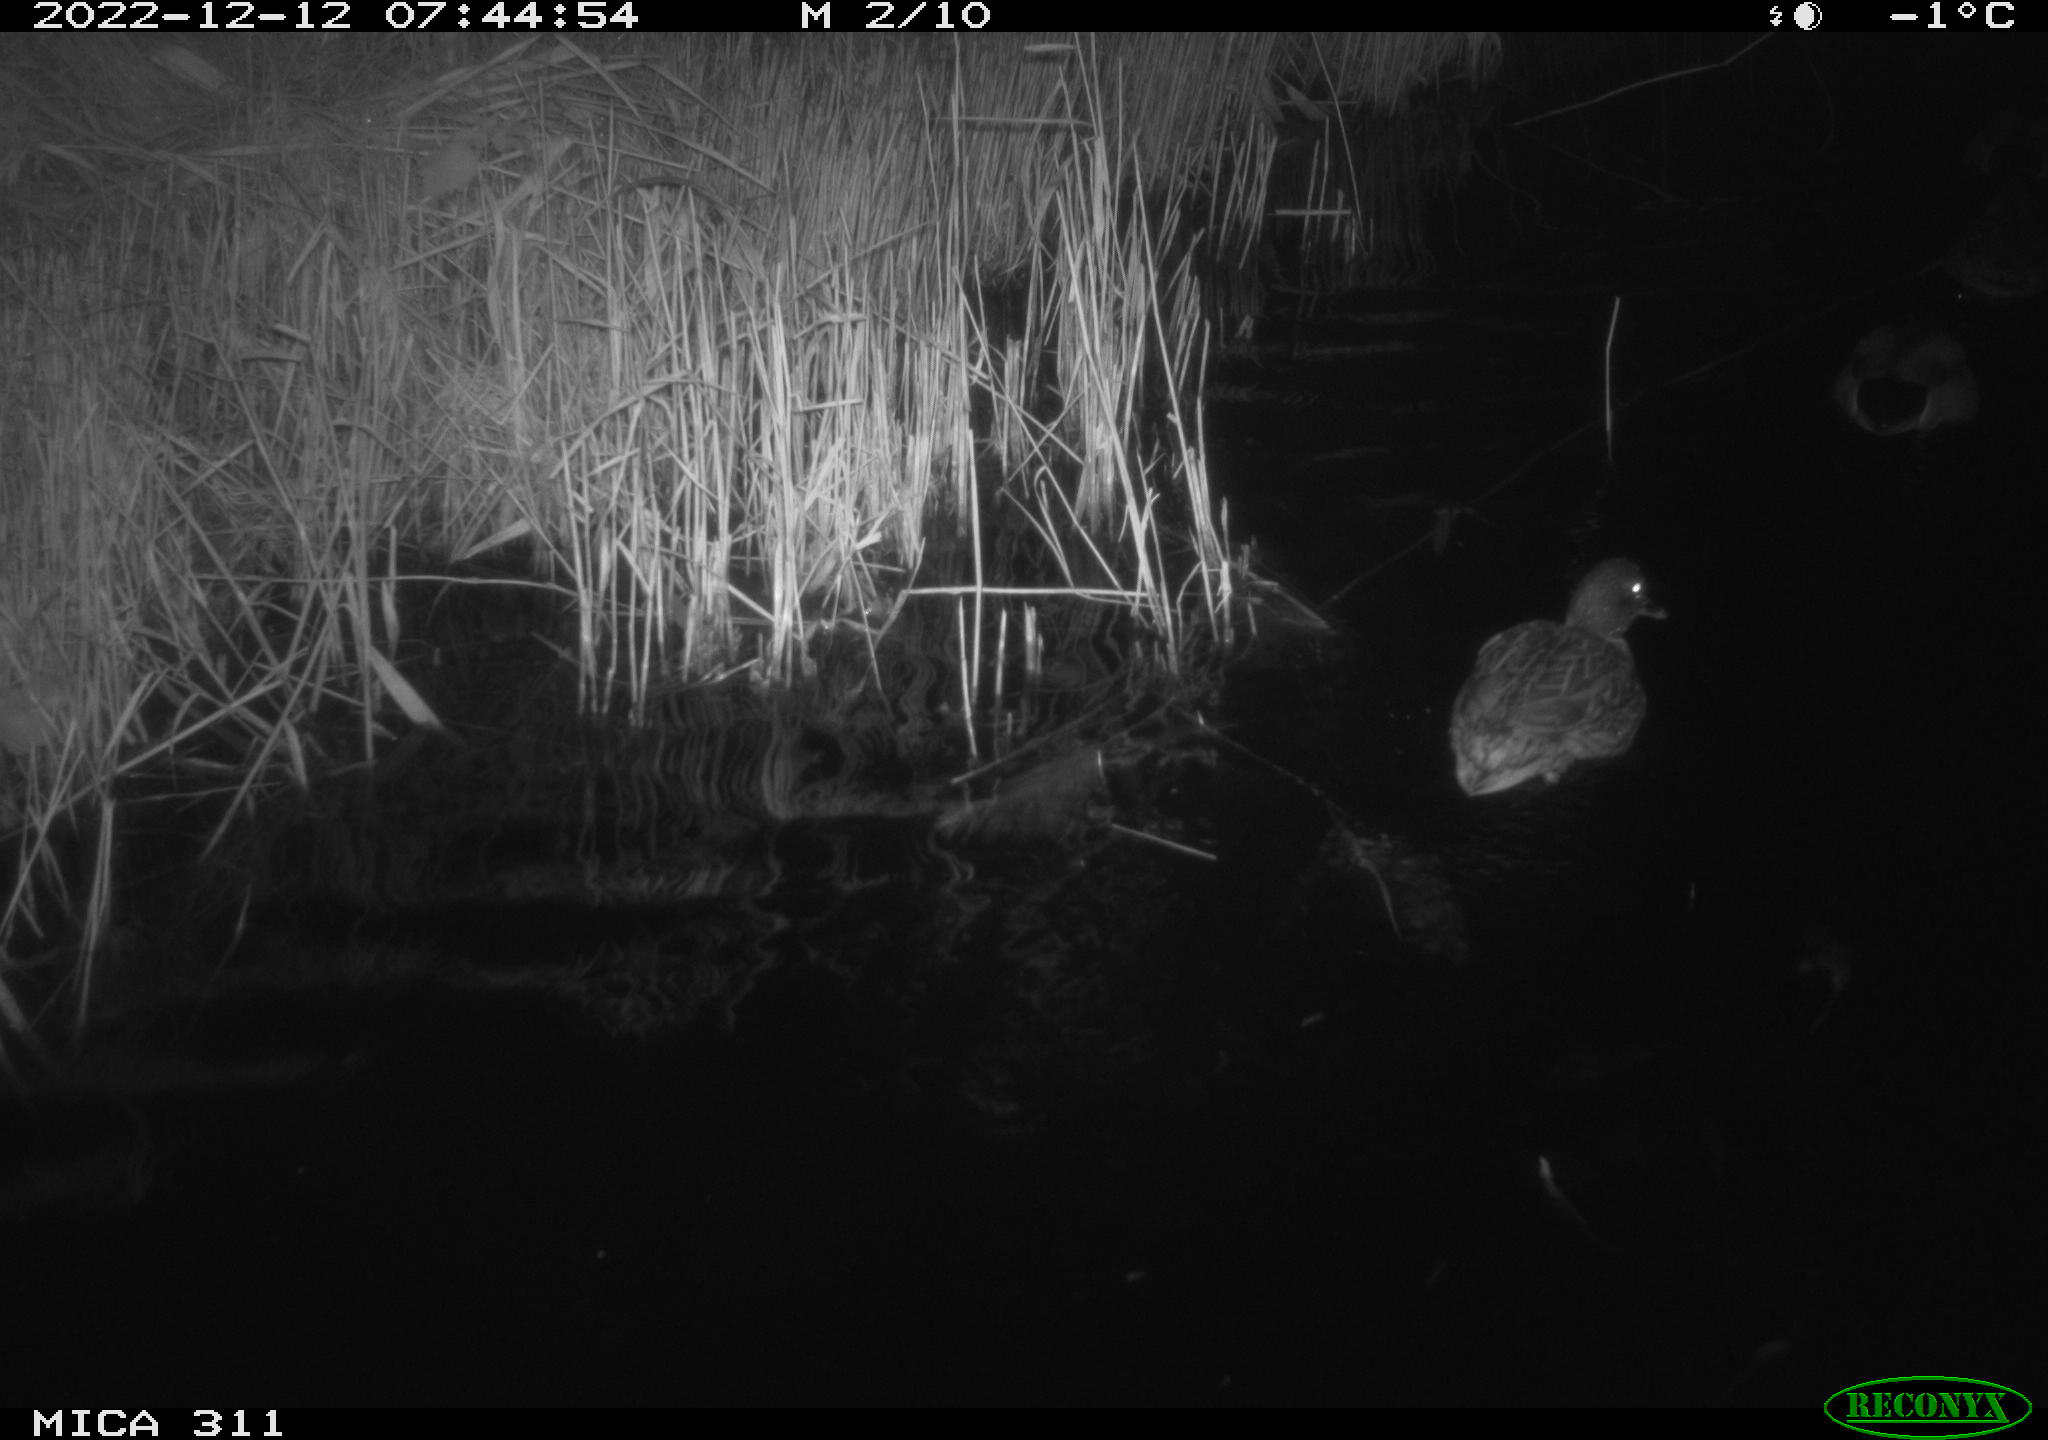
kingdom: Animalia
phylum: Chordata
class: Aves
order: Gruiformes
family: Rallidae
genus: Fulica
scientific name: Fulica atra
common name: Eurasian coot
